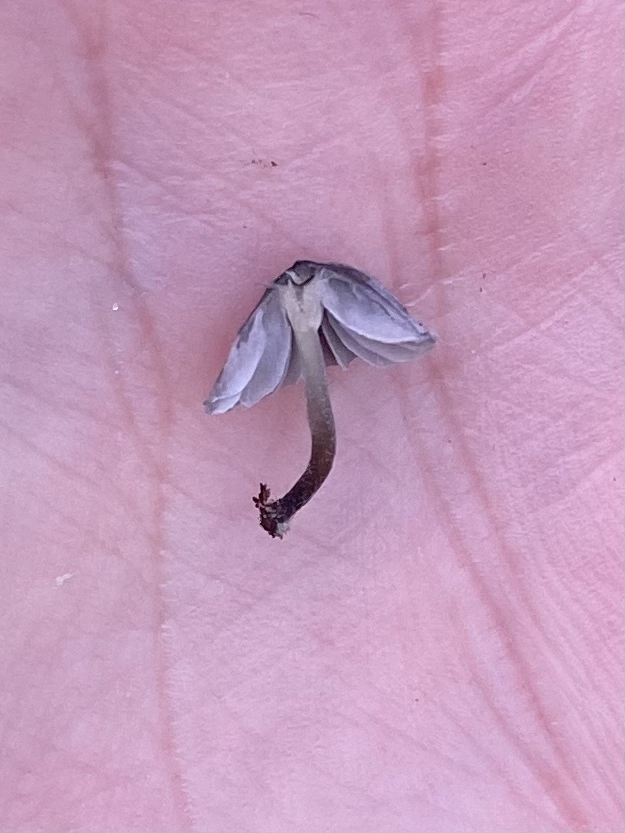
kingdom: Fungi
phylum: Basidiomycota
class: Agaricomycetes
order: Agaricales
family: Mycenaceae
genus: Mycena
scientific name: Mycena pseudocorticola
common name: gråblå bark-huesvamp
